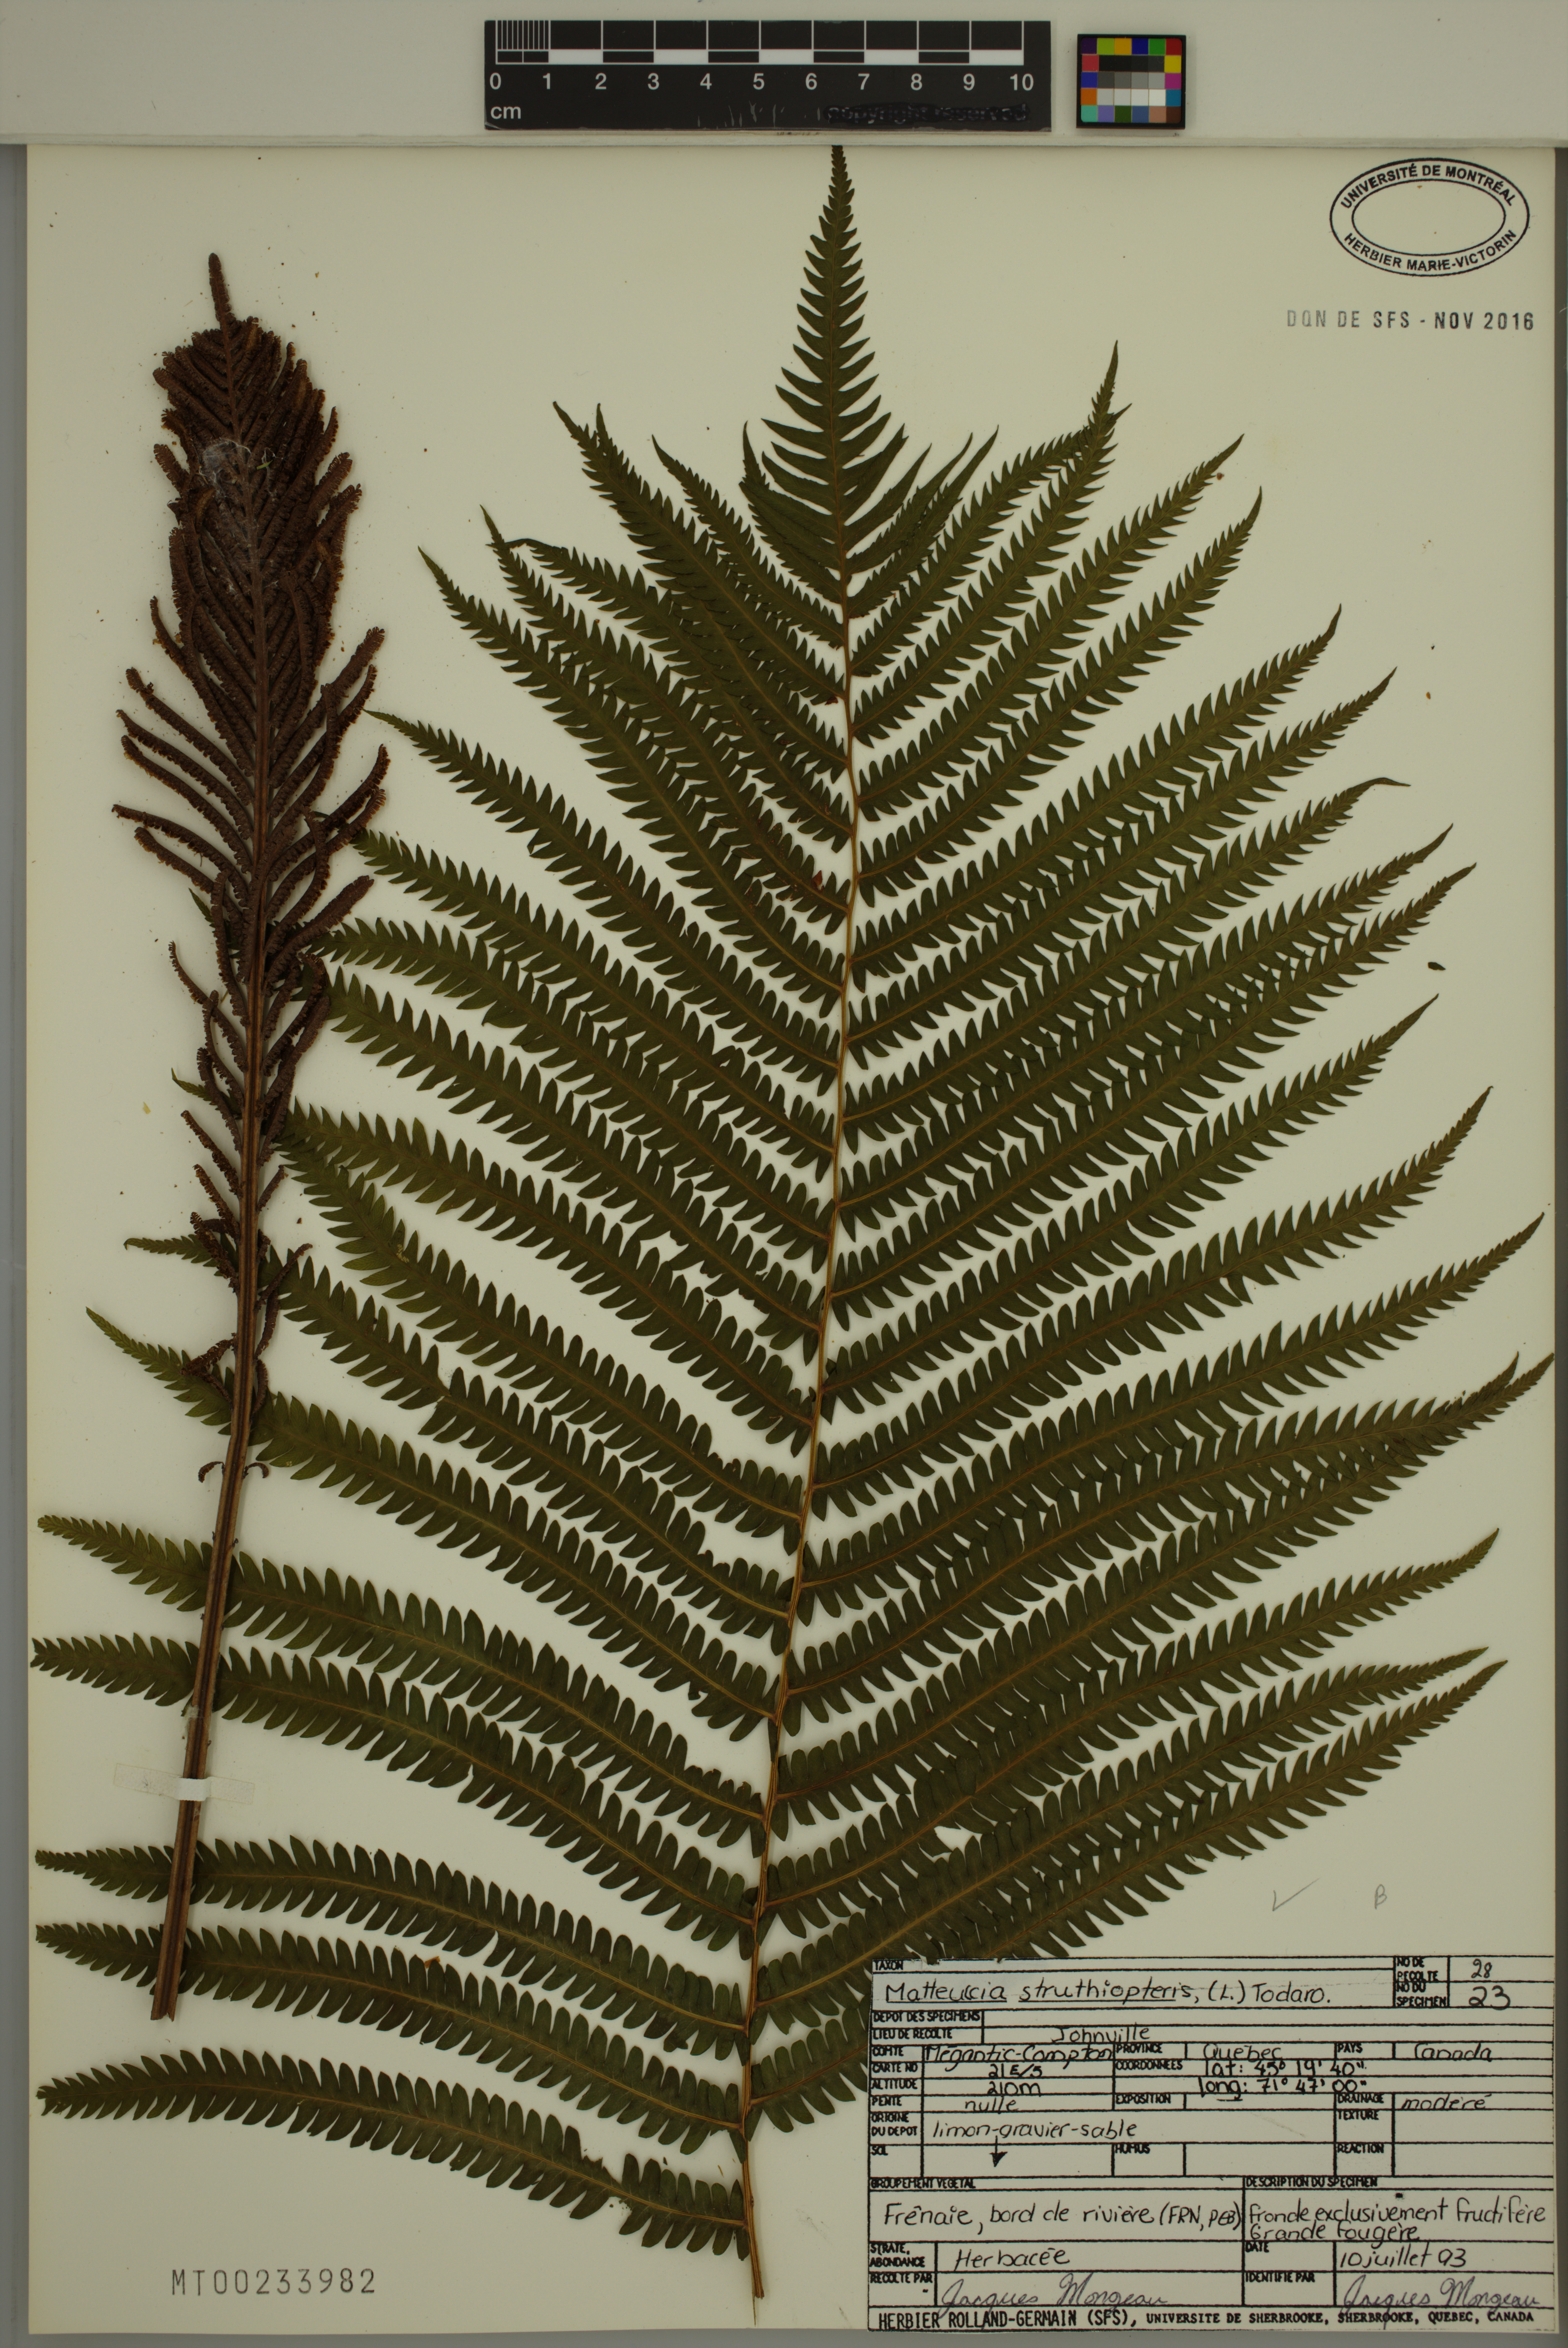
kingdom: Plantae
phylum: Tracheophyta
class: Polypodiopsida
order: Polypodiales
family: Onocleaceae
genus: Matteuccia
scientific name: Matteuccia struthiopteris
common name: Ostrich fern
